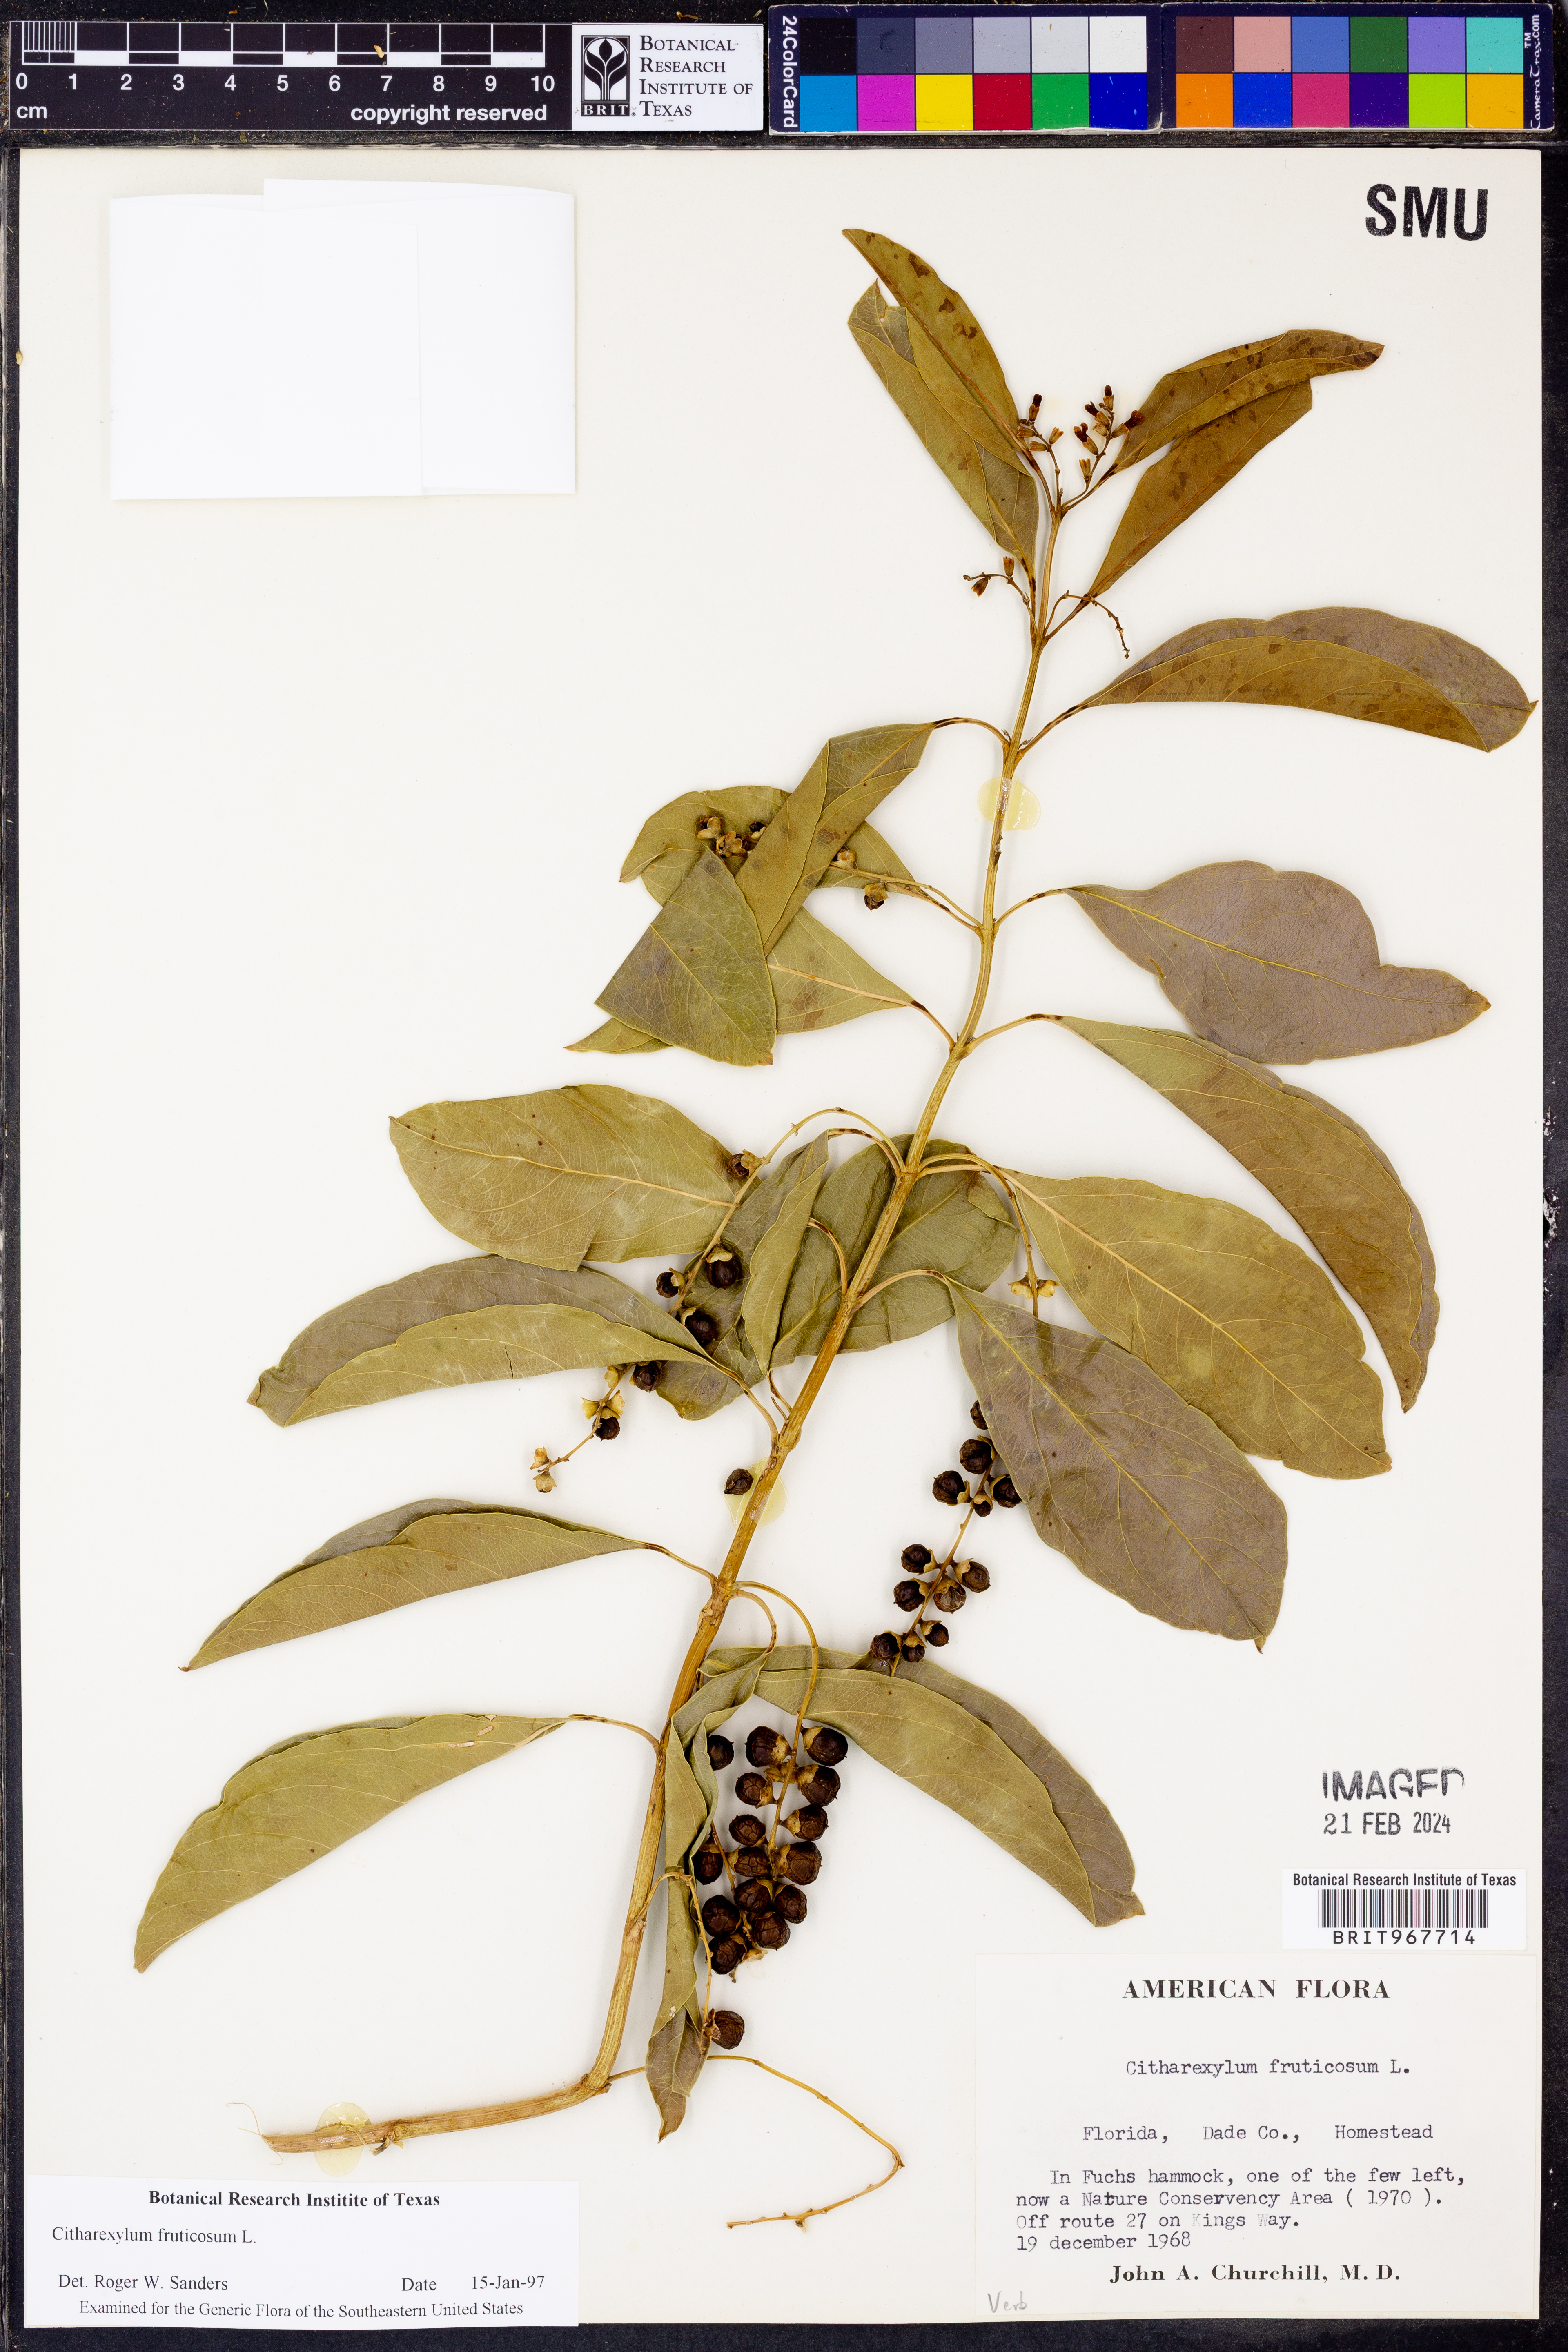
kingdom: Plantae
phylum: Tracheophyta
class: Magnoliopsida
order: Lamiales
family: Verbenaceae
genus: Citharexylum
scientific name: Citharexylum
